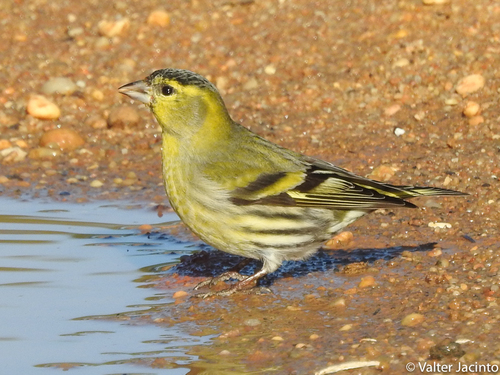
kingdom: Animalia
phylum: Chordata
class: Aves
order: Passeriformes
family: Fringillidae
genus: Spinus
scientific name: Spinus spinus
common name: Eurasian siskin
